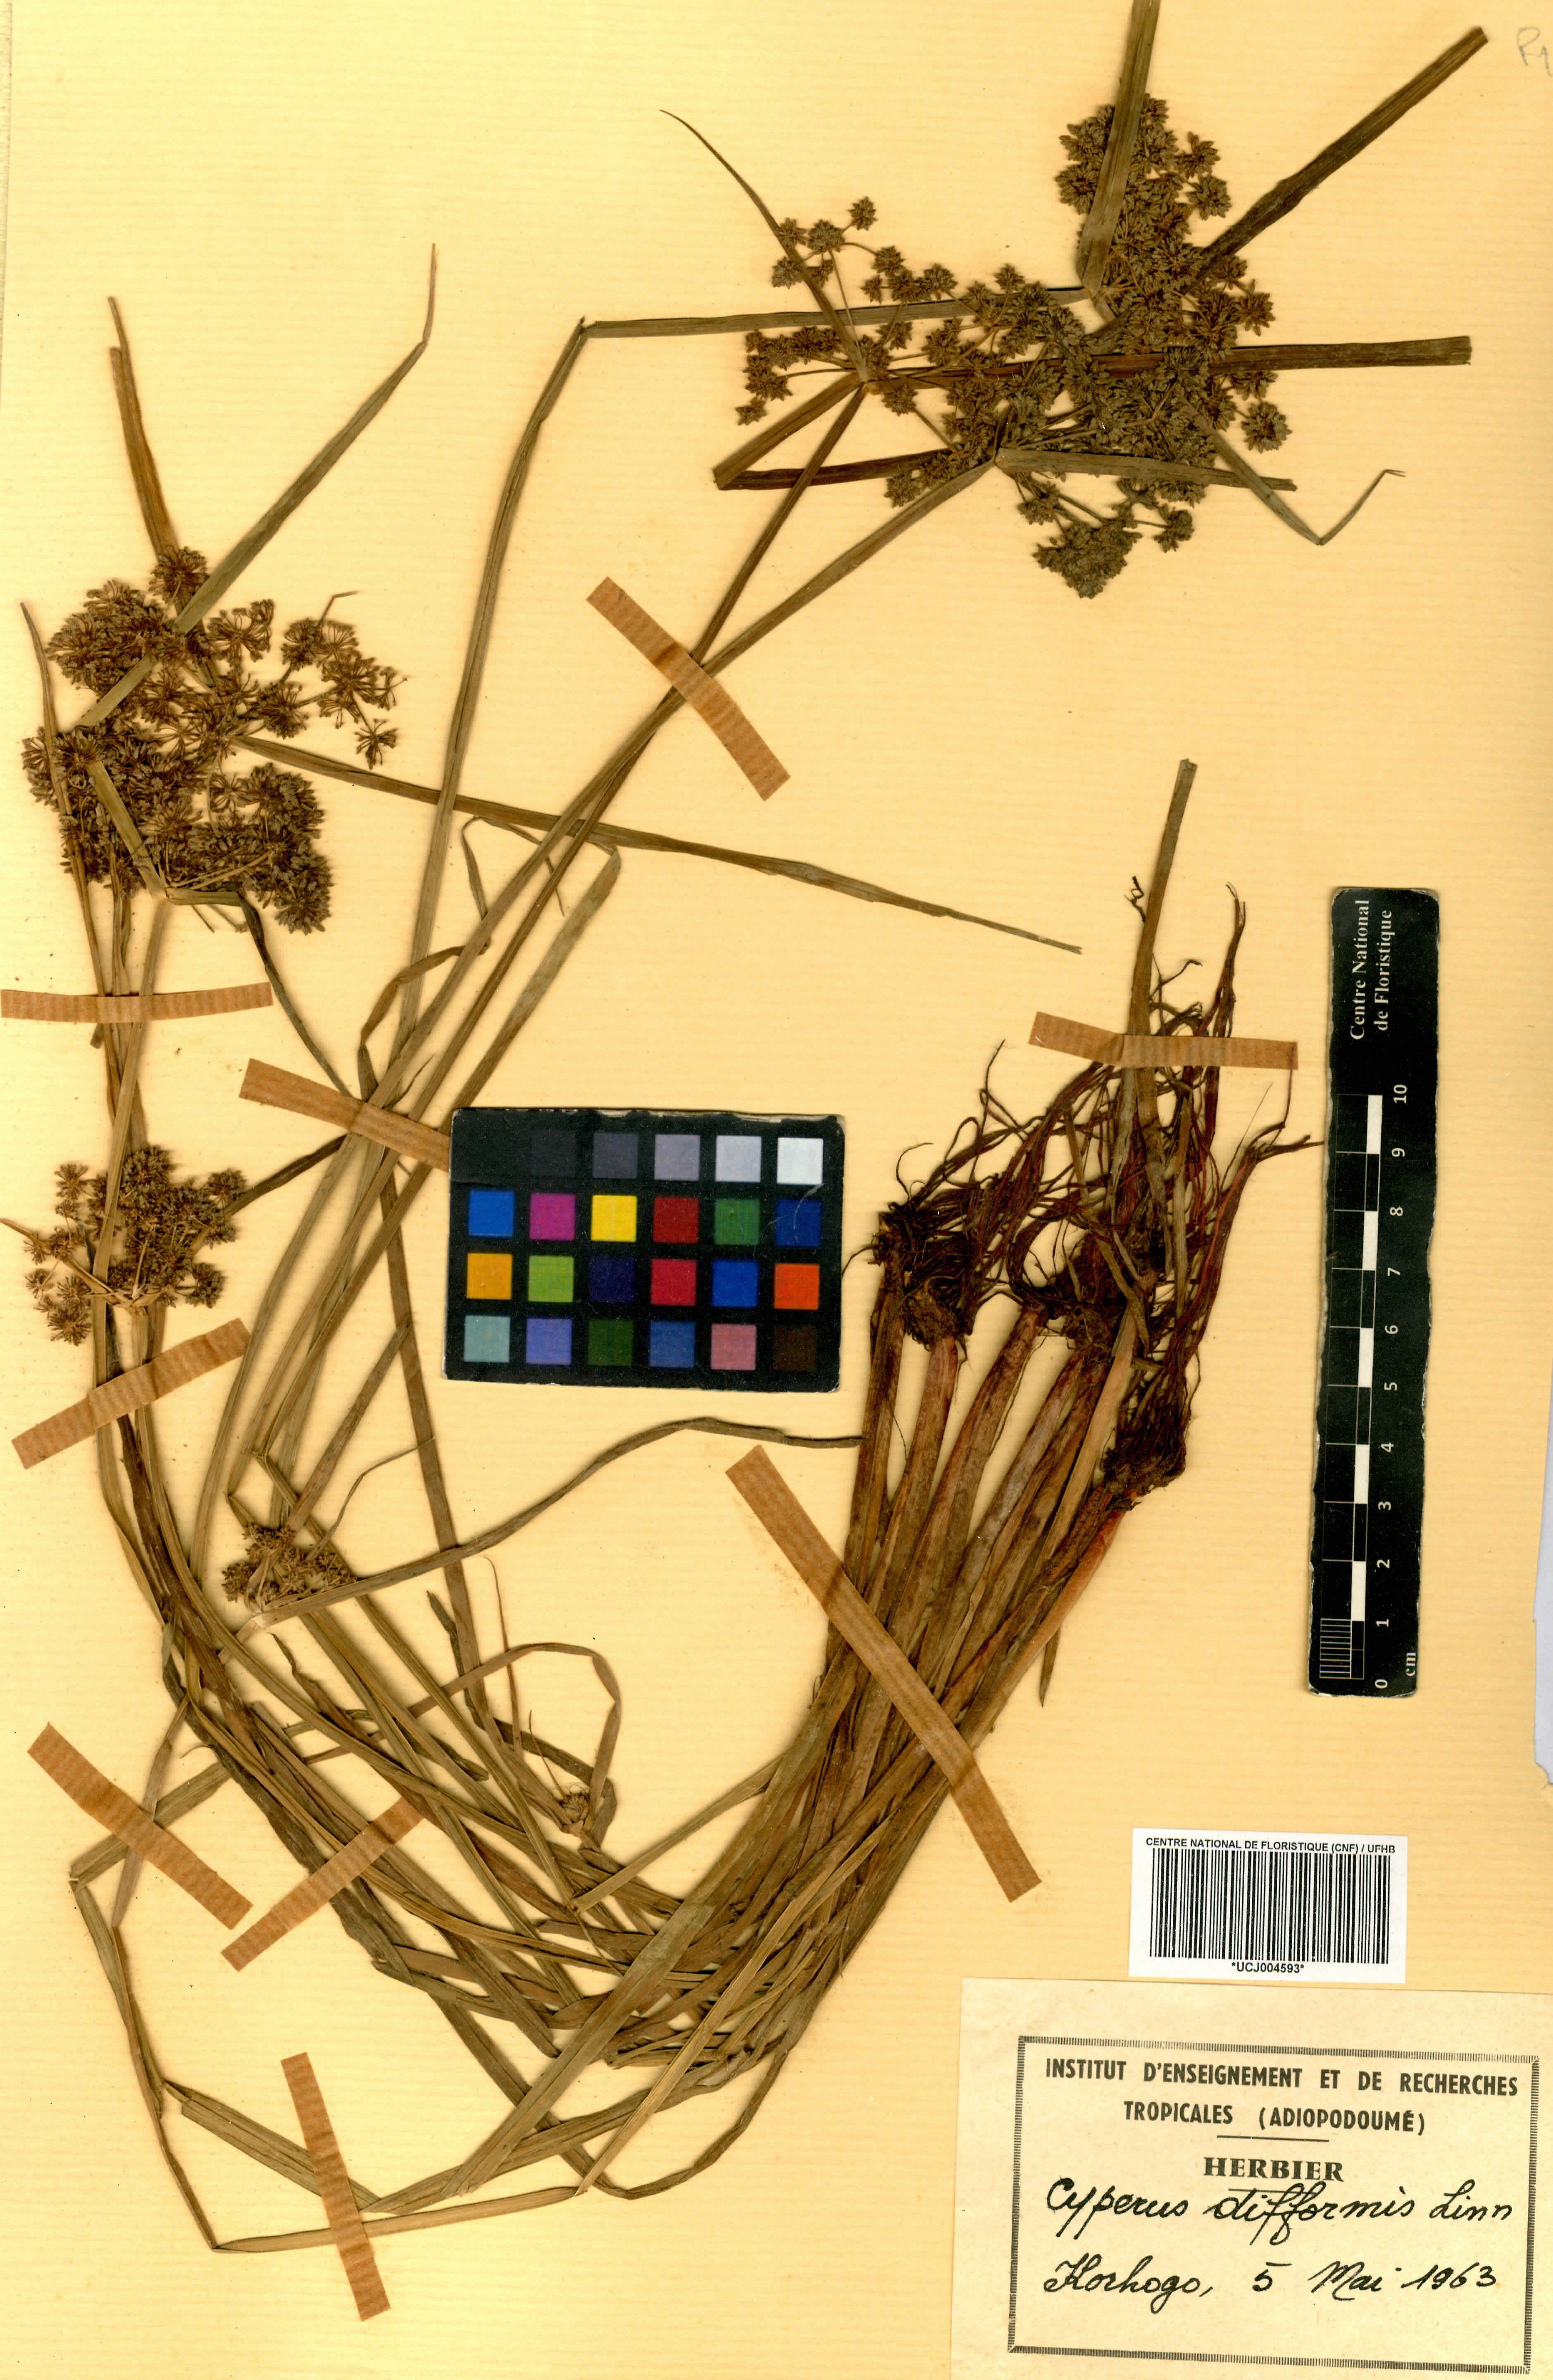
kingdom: Plantae
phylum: Tracheophyta
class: Liliopsida
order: Poales
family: Cyperaceae
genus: Cyperus
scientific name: Cyperus difformis
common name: Variable flatsedge
